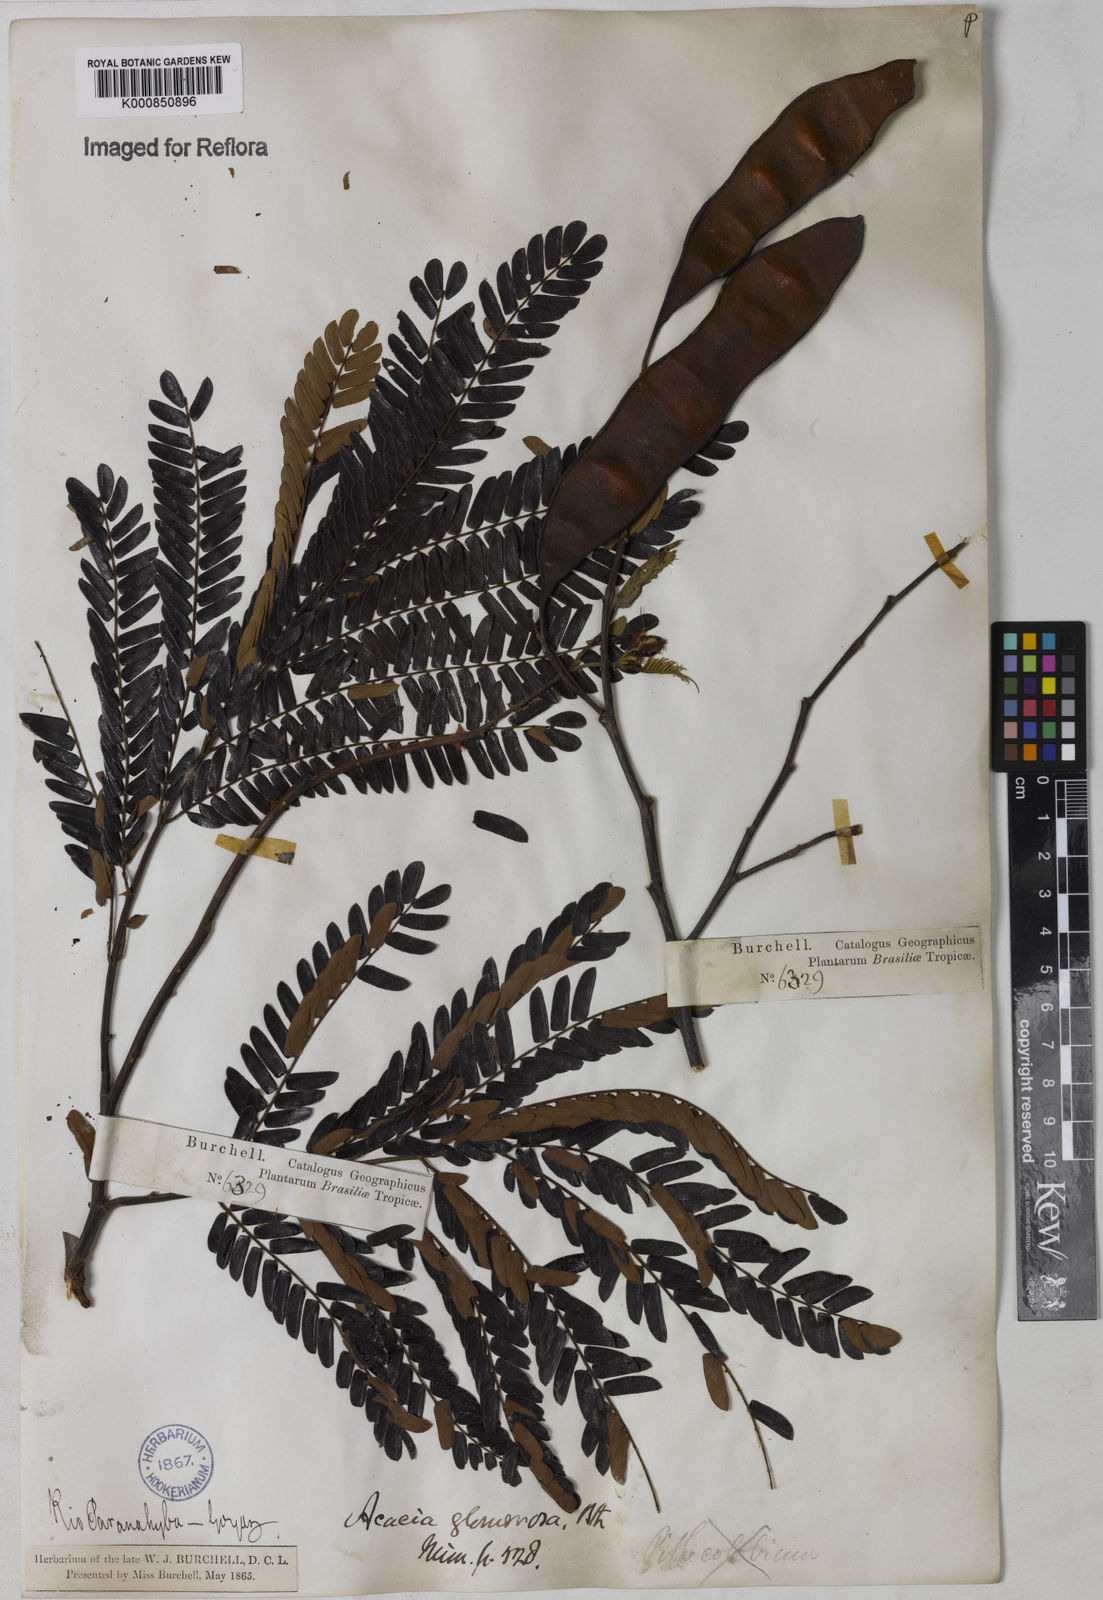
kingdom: Plantae
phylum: Tracheophyta
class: Magnoliopsida
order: Fabales
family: Fabaceae
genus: Senegalia
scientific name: Senegalia polyphylla
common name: White-tamarind
